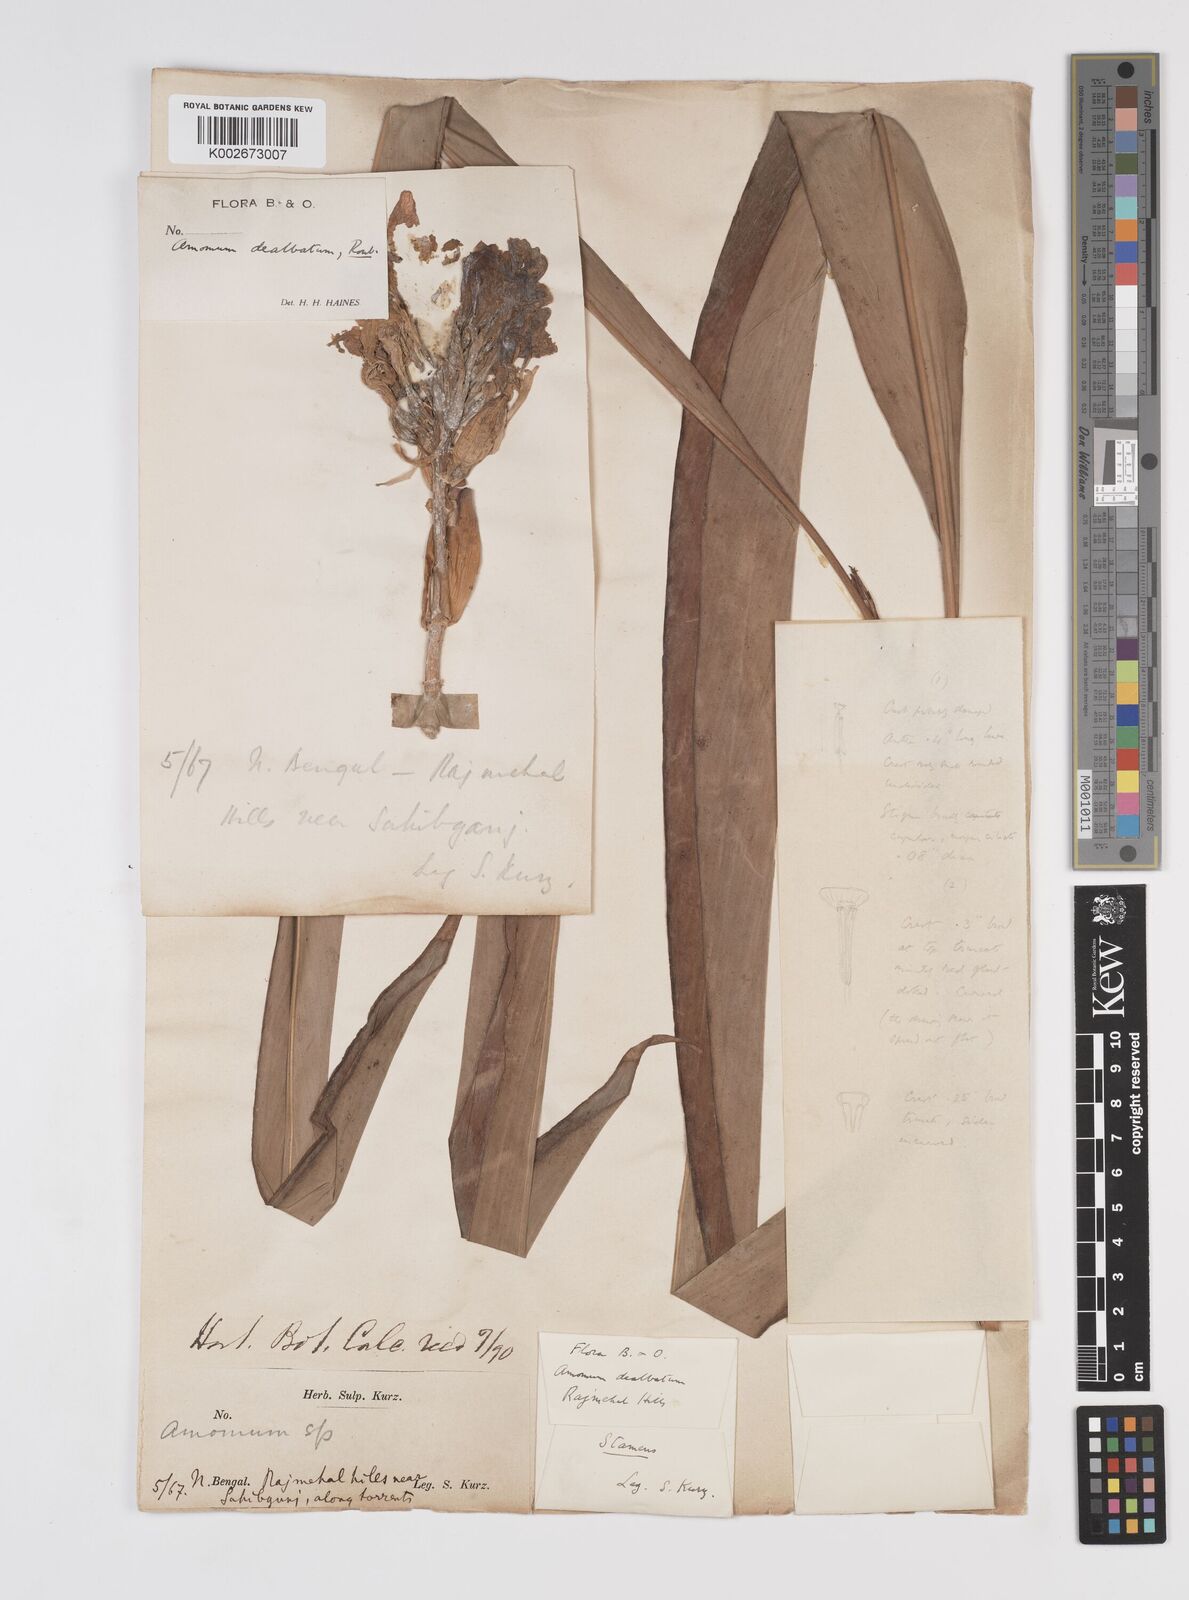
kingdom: Plantae
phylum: Tracheophyta
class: Liliopsida
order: Zingiberales
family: Zingiberaceae
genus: Amomum
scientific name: Amomum dealbatum
